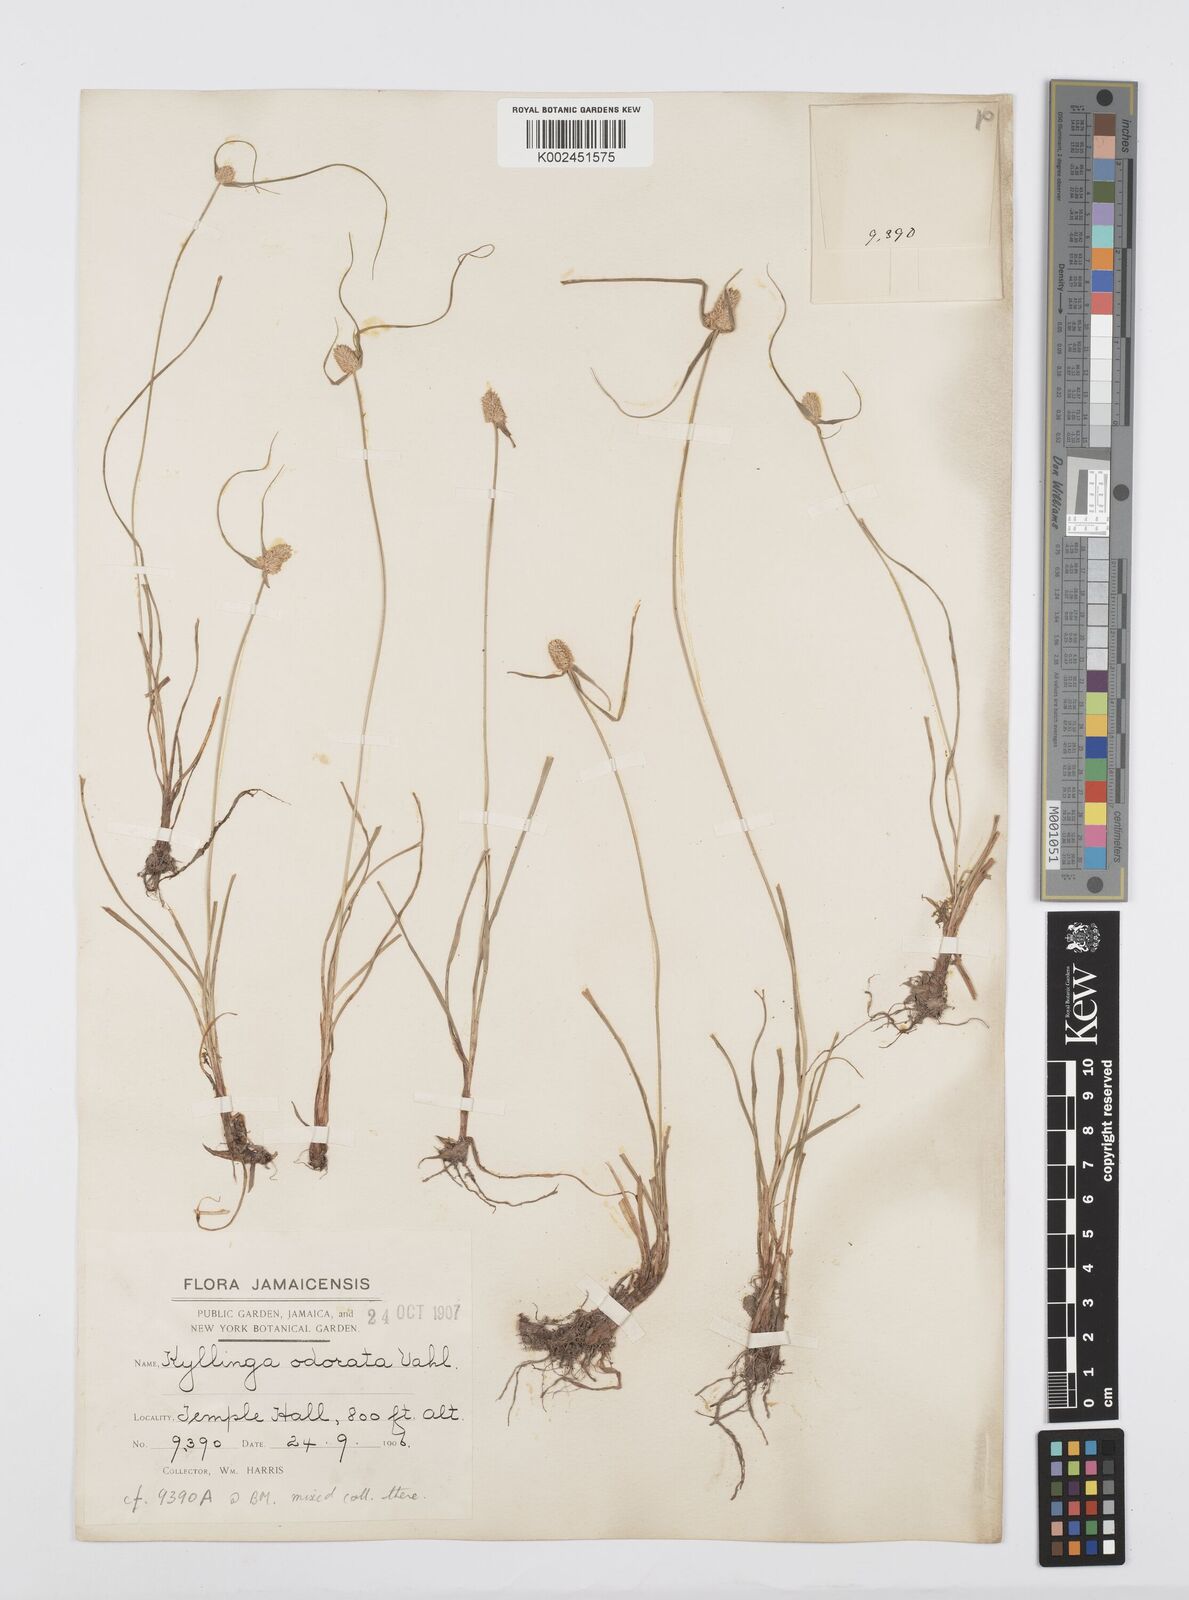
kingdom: Plantae
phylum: Tracheophyta
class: Liliopsida
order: Poales
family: Cyperaceae
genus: Cyperus
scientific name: Cyperus
